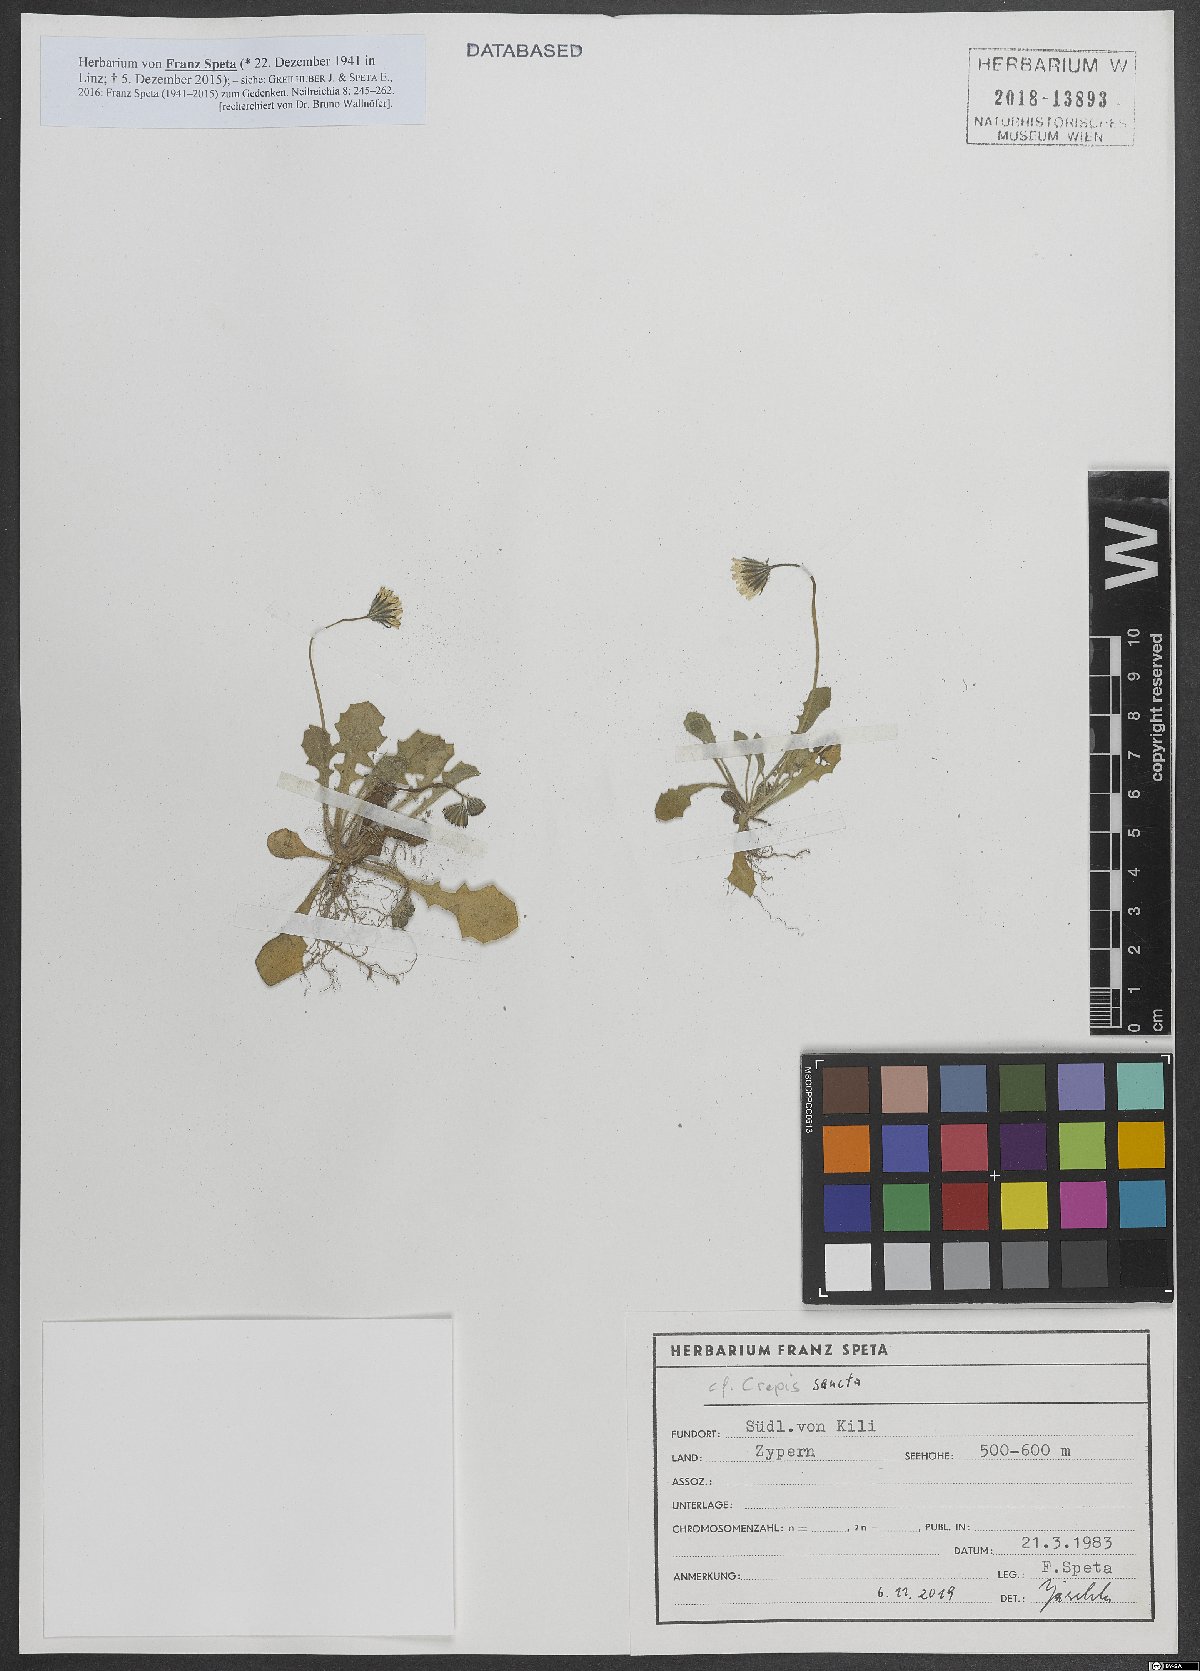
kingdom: Plantae
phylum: Tracheophyta
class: Magnoliopsida
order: Asterales
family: Asteraceae
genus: Crepis
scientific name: Crepis sancta
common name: Hawk's-beard
